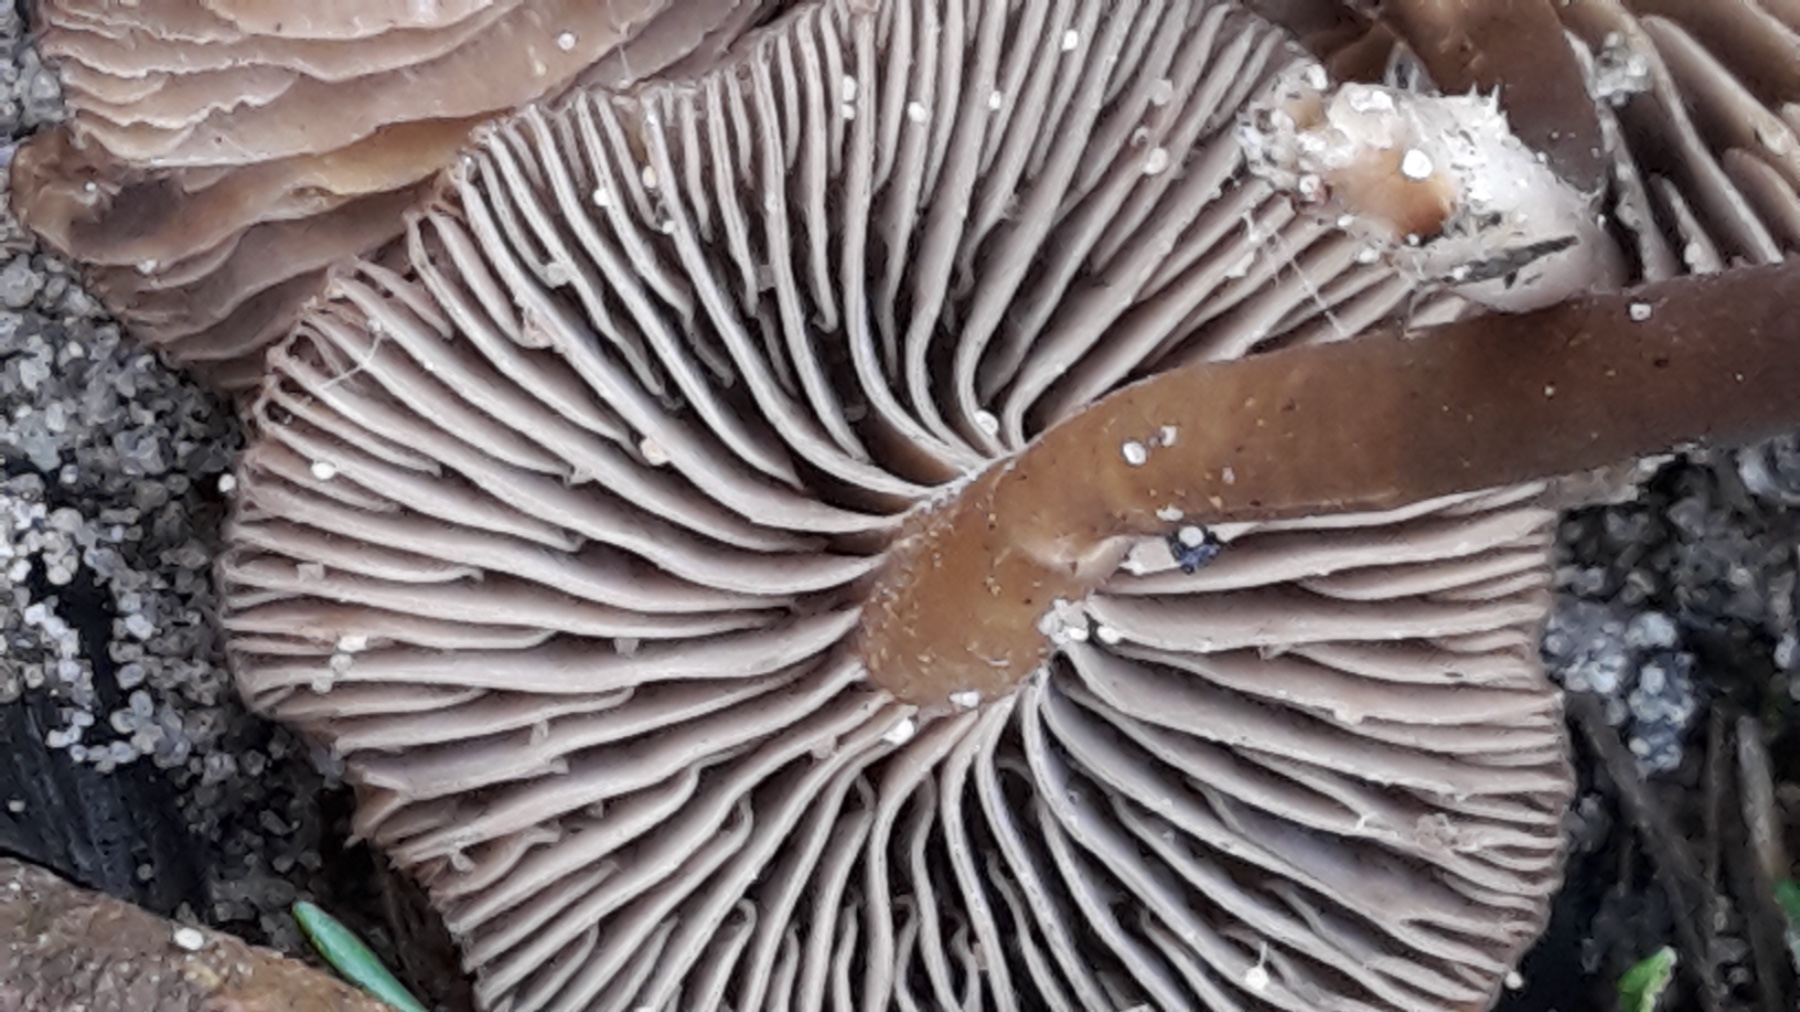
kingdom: Fungi
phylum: Basidiomycota
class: Agaricomycetes
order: Agaricales
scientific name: Agaricales
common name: champignonordenen
